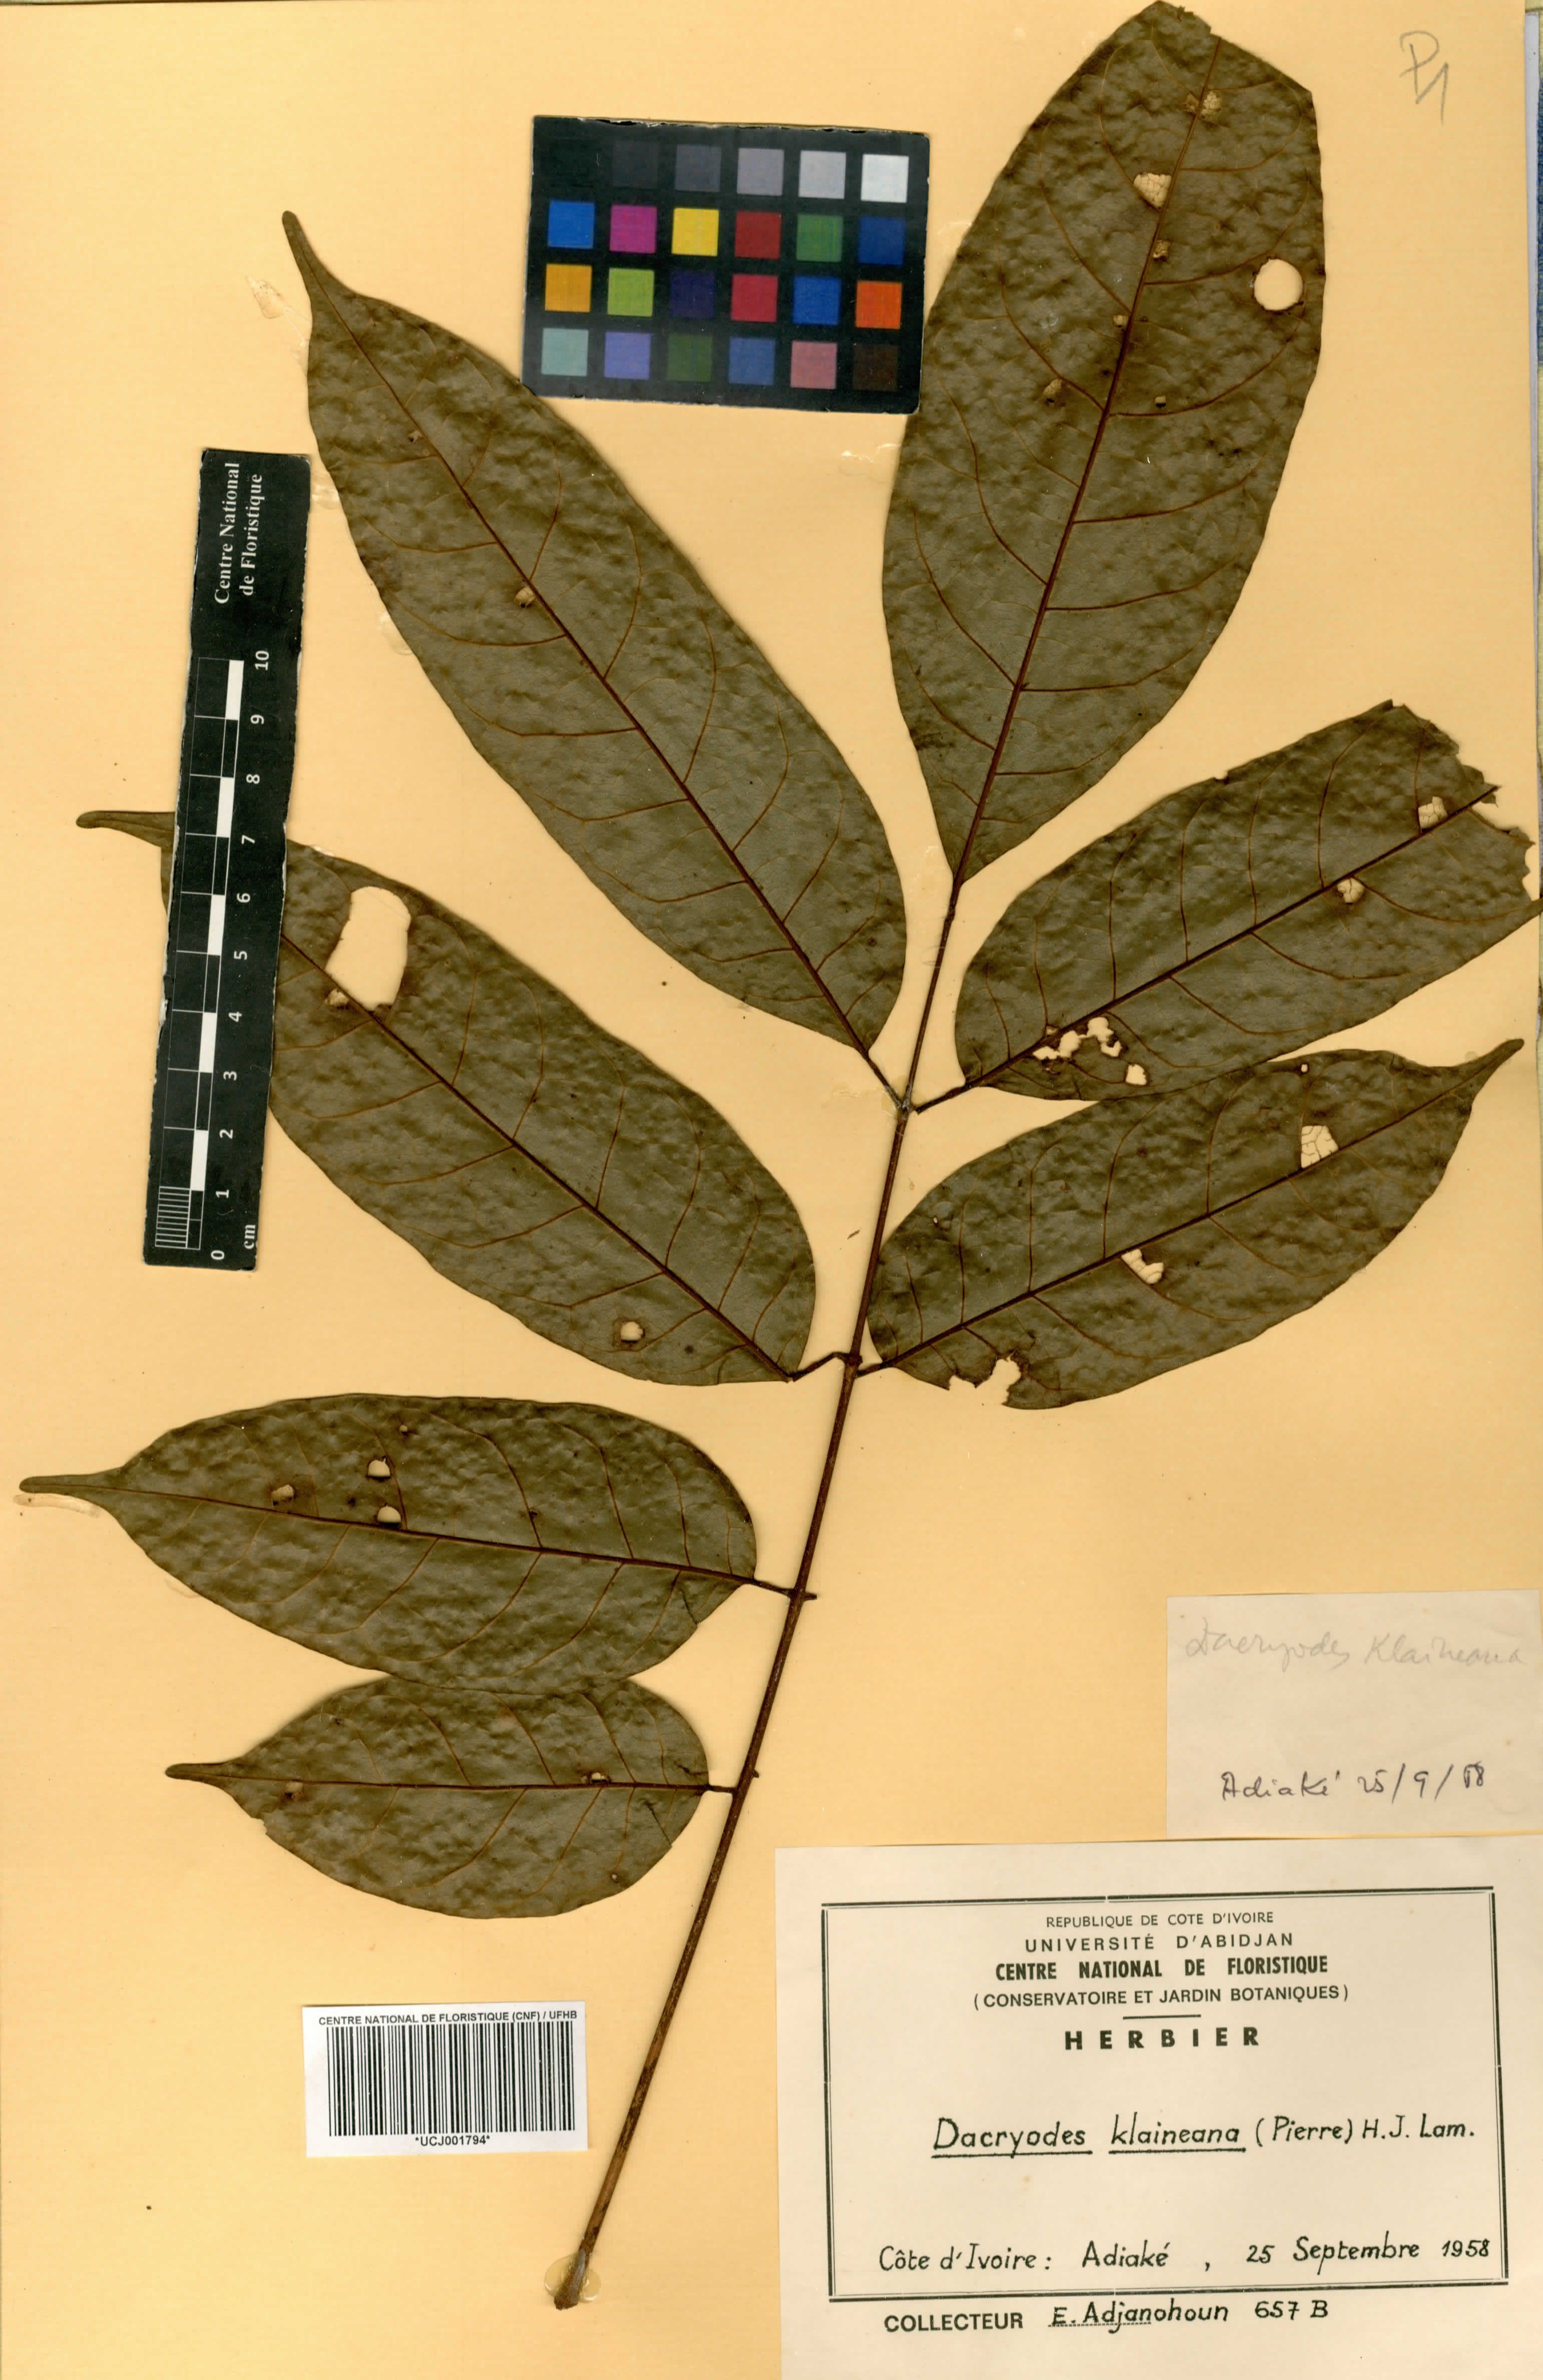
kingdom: Plantae
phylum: Tracheophyta
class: Magnoliopsida
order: Sapindales
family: Burseraceae
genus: Pachylobus
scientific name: Pachylobus klaineana
